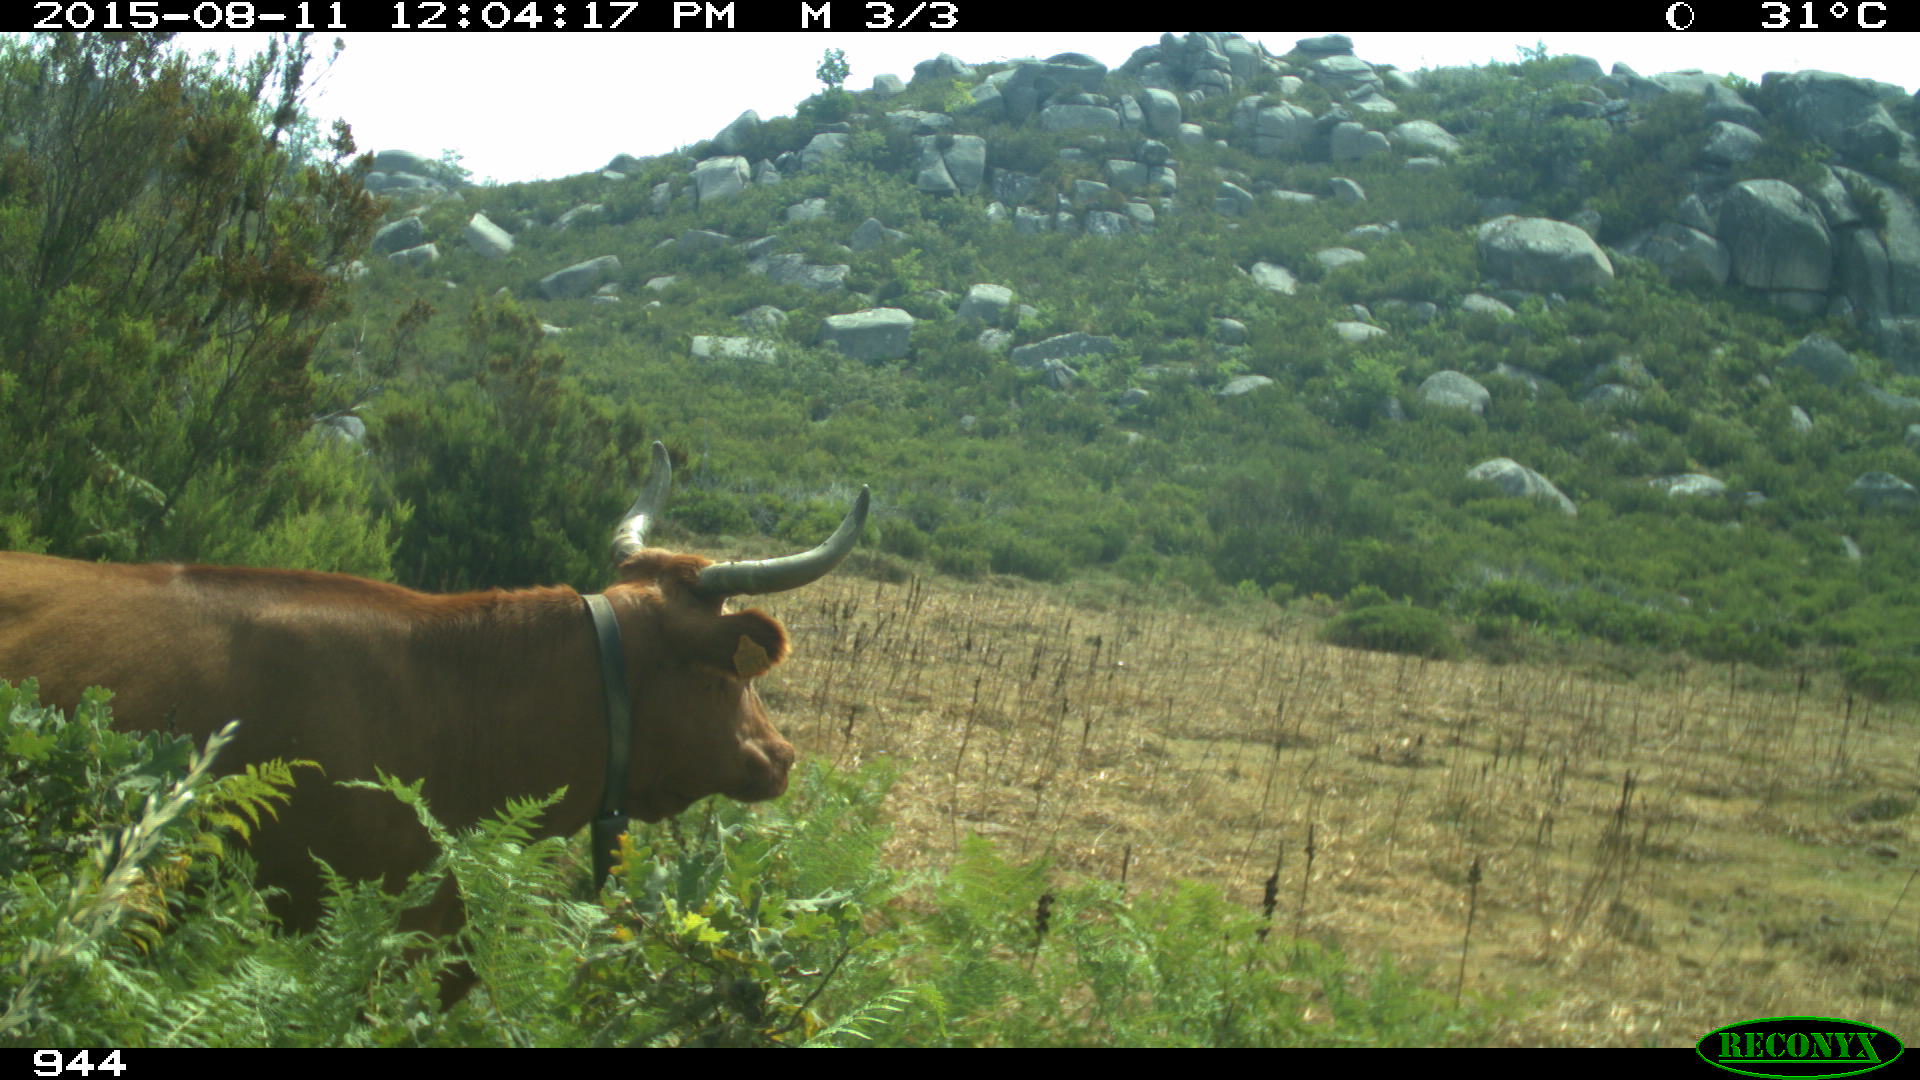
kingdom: Animalia
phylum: Chordata
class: Mammalia
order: Artiodactyla
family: Bovidae
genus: Bos
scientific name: Bos taurus
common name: Domesticated cattle
